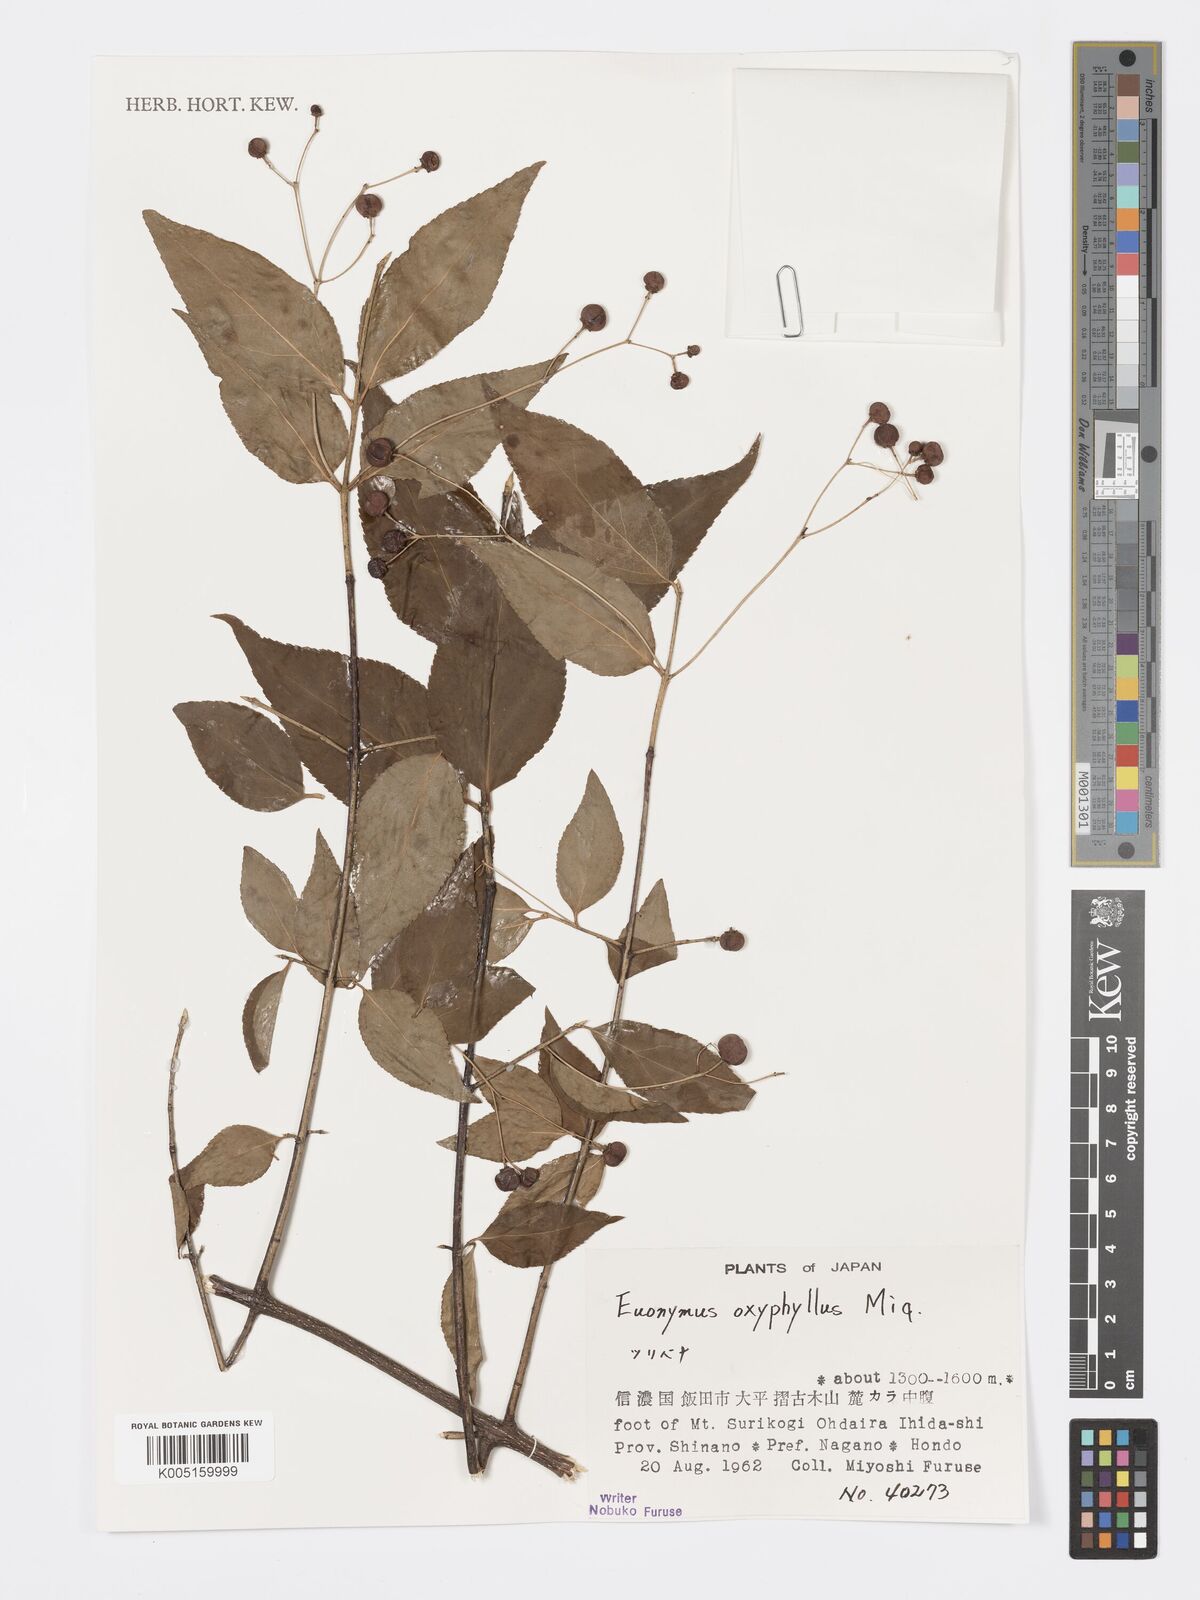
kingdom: Plantae
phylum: Tracheophyta
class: Magnoliopsida
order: Celastrales
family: Celastraceae
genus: Euonymus
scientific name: Euonymus oxyphyllus
